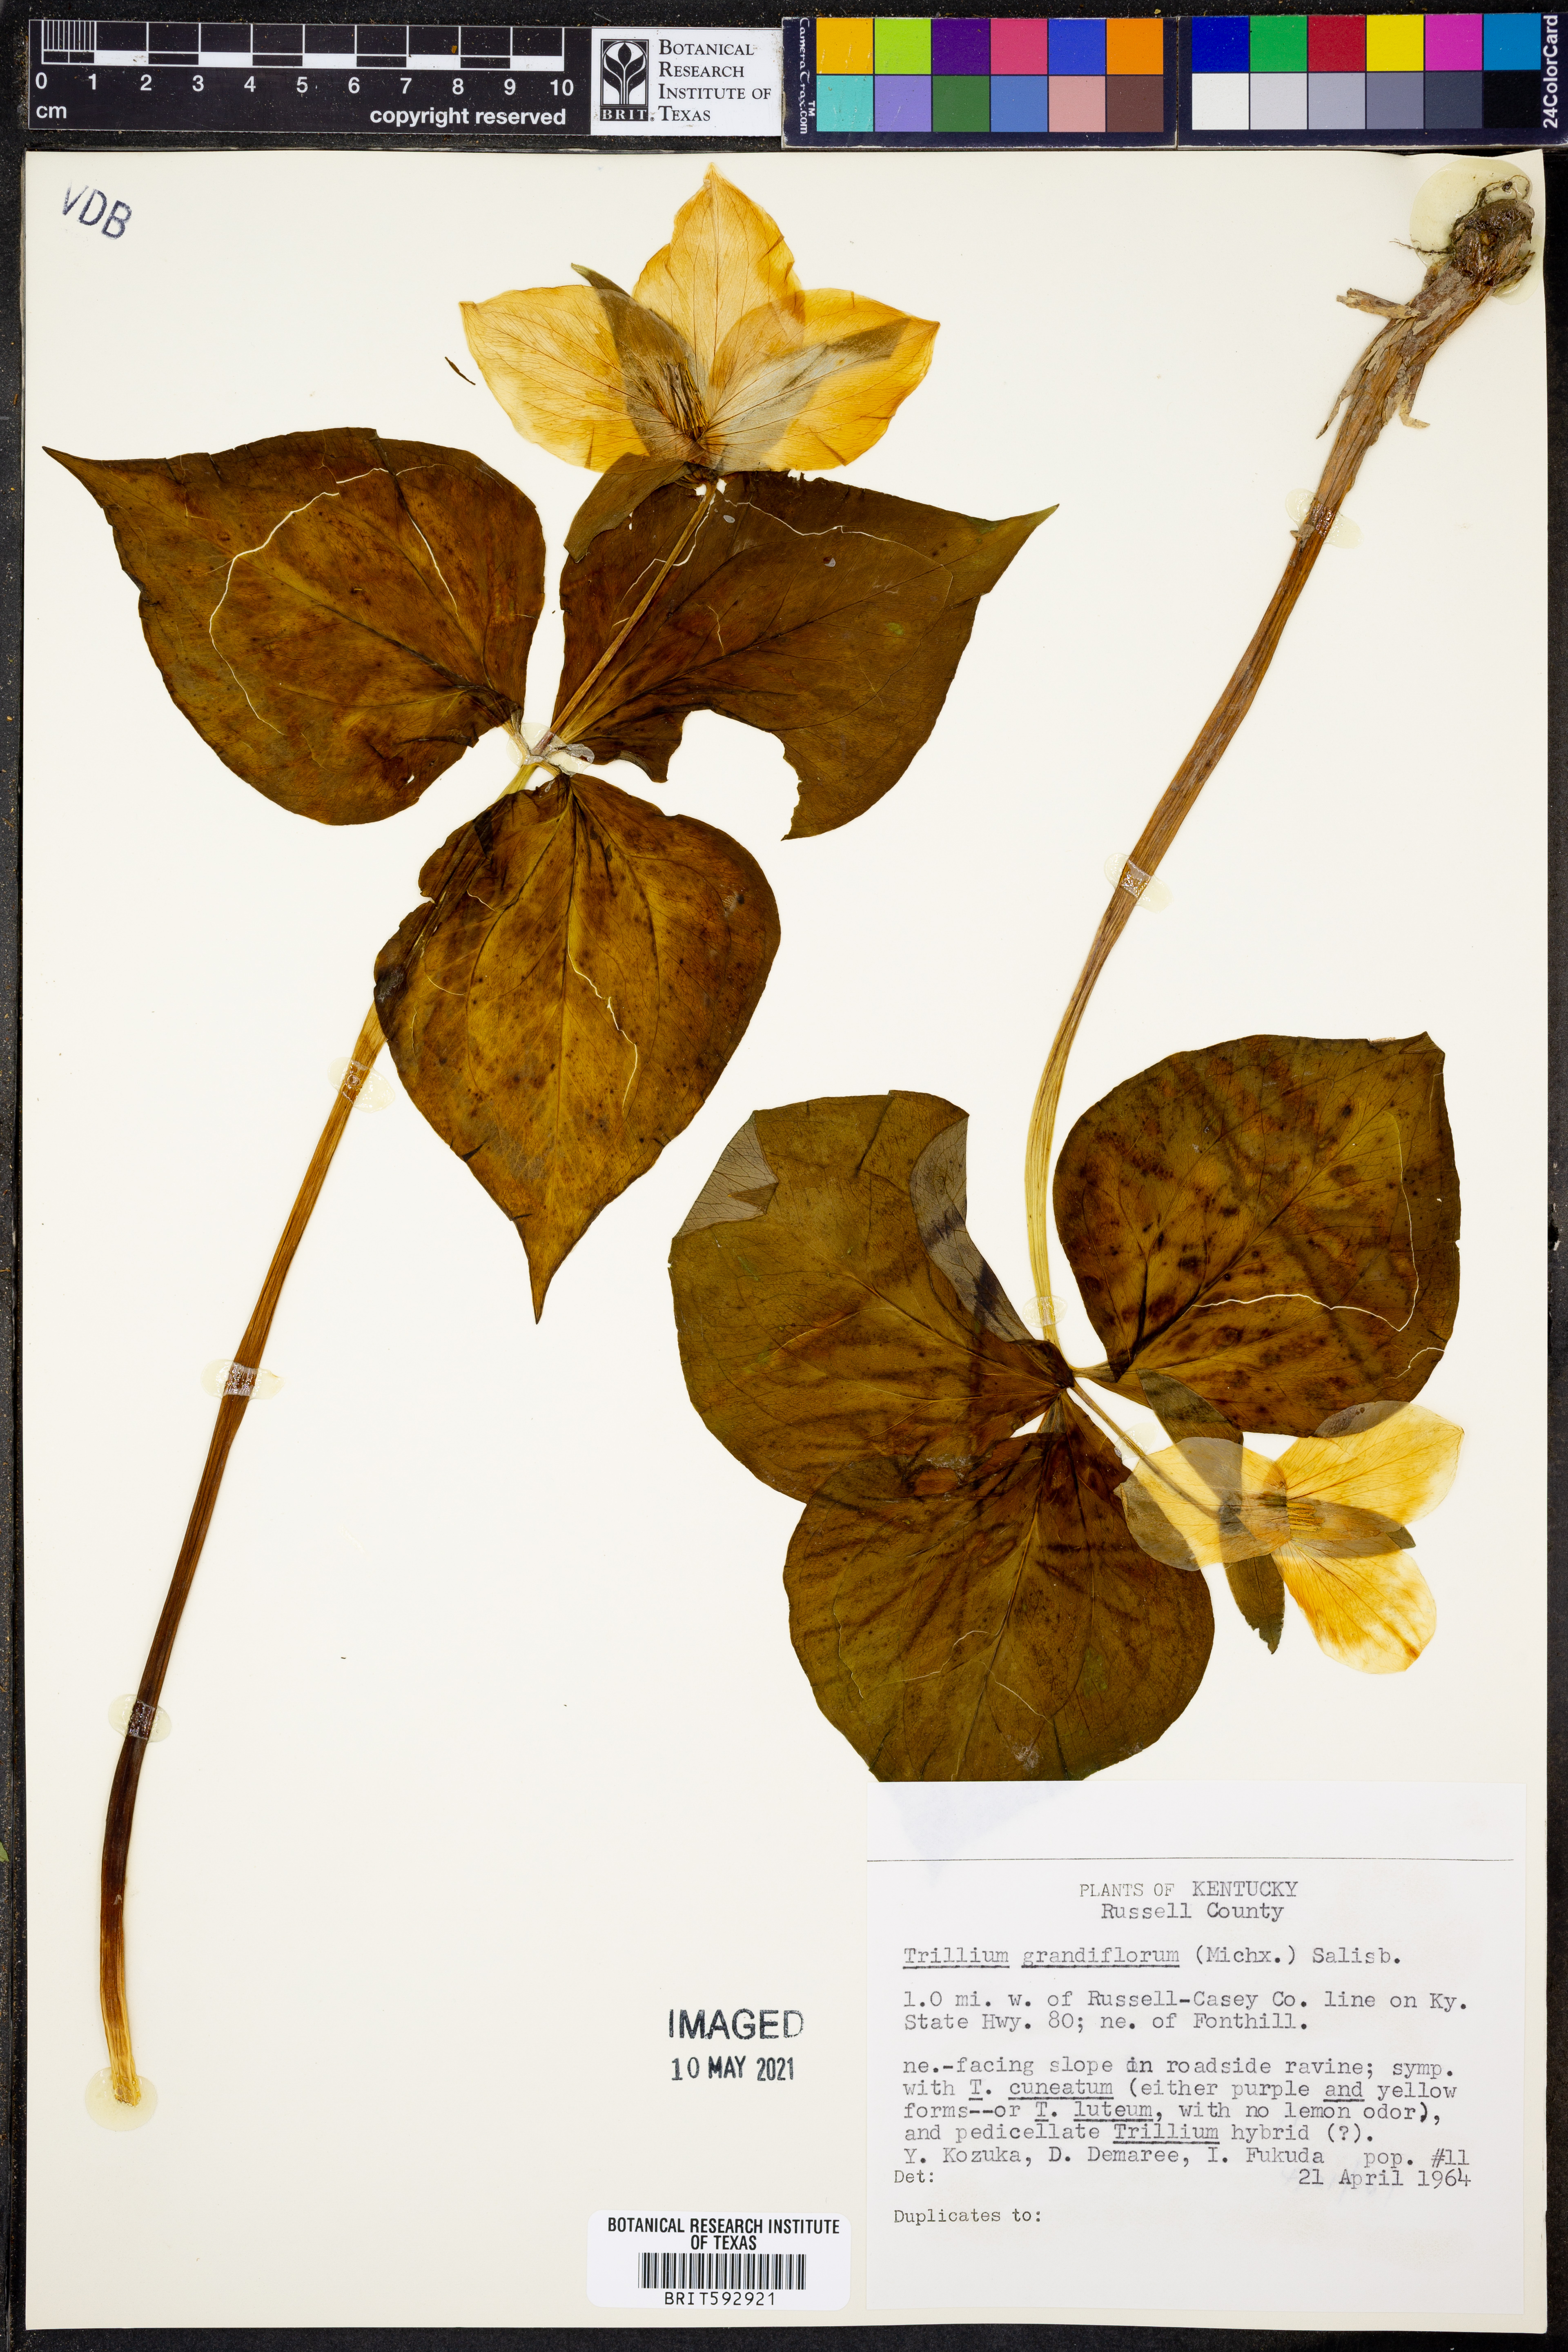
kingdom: Plantae
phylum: Tracheophyta
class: Liliopsida
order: Liliales
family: Melanthiaceae
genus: Trillium
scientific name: Trillium grandiflorum
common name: Great white trillium
